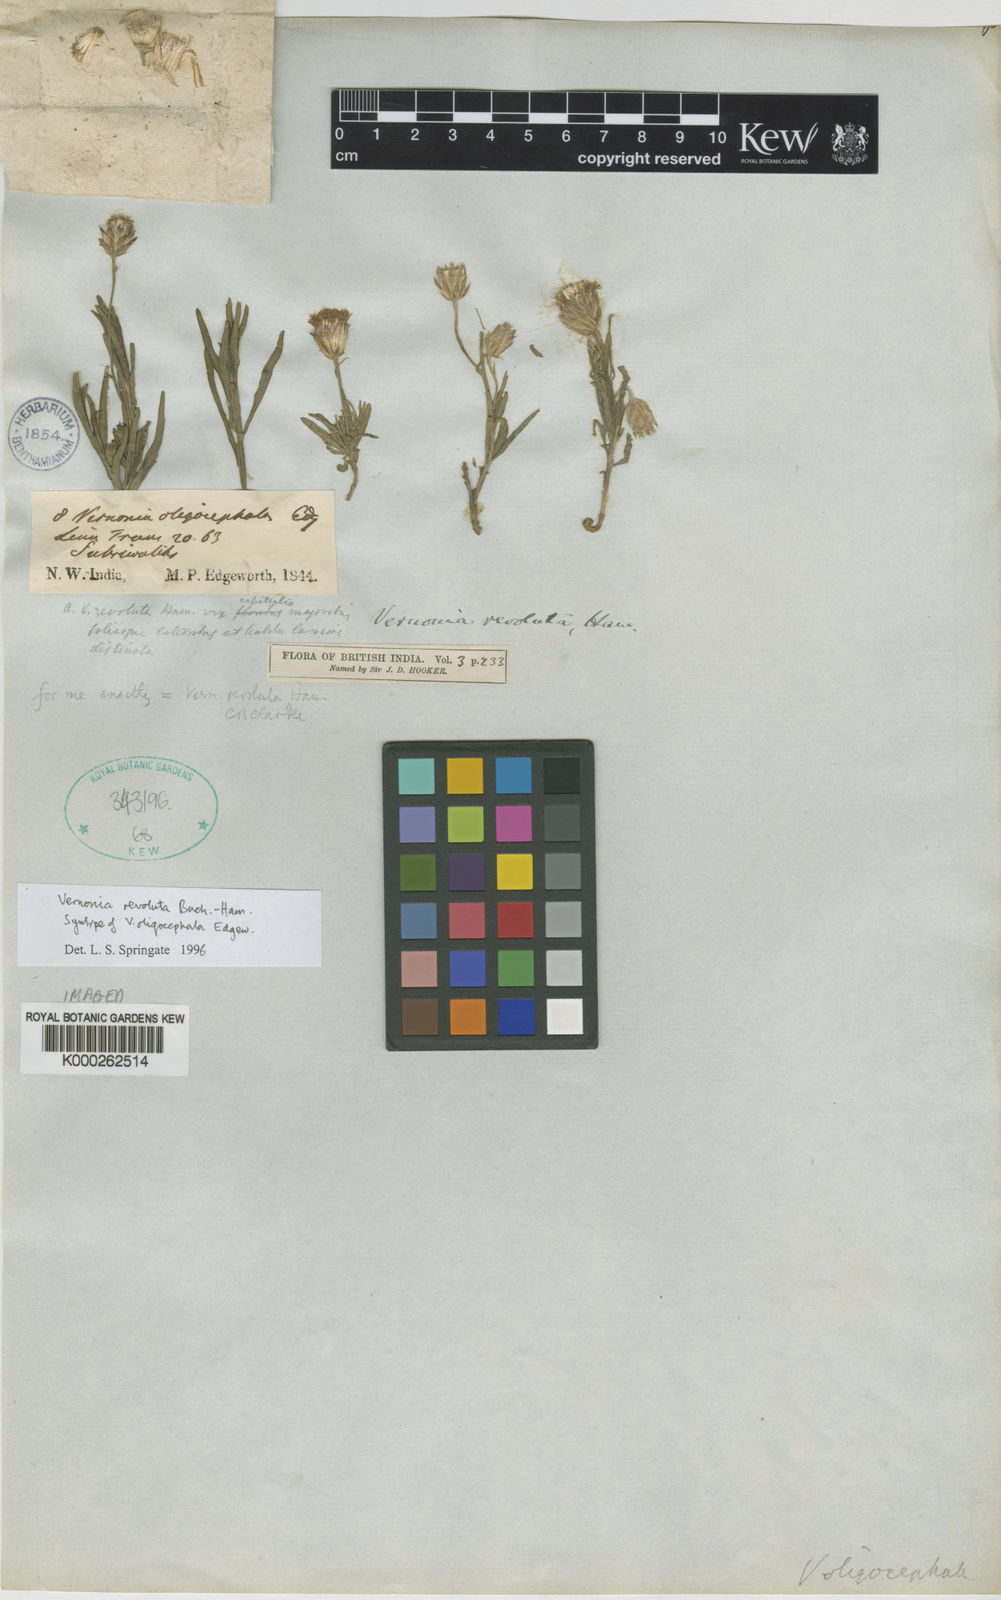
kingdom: Plantae
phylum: Tracheophyta
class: Magnoliopsida
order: Asterales
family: Asteraceae
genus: Vernonia
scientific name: Vernonia revoluta
